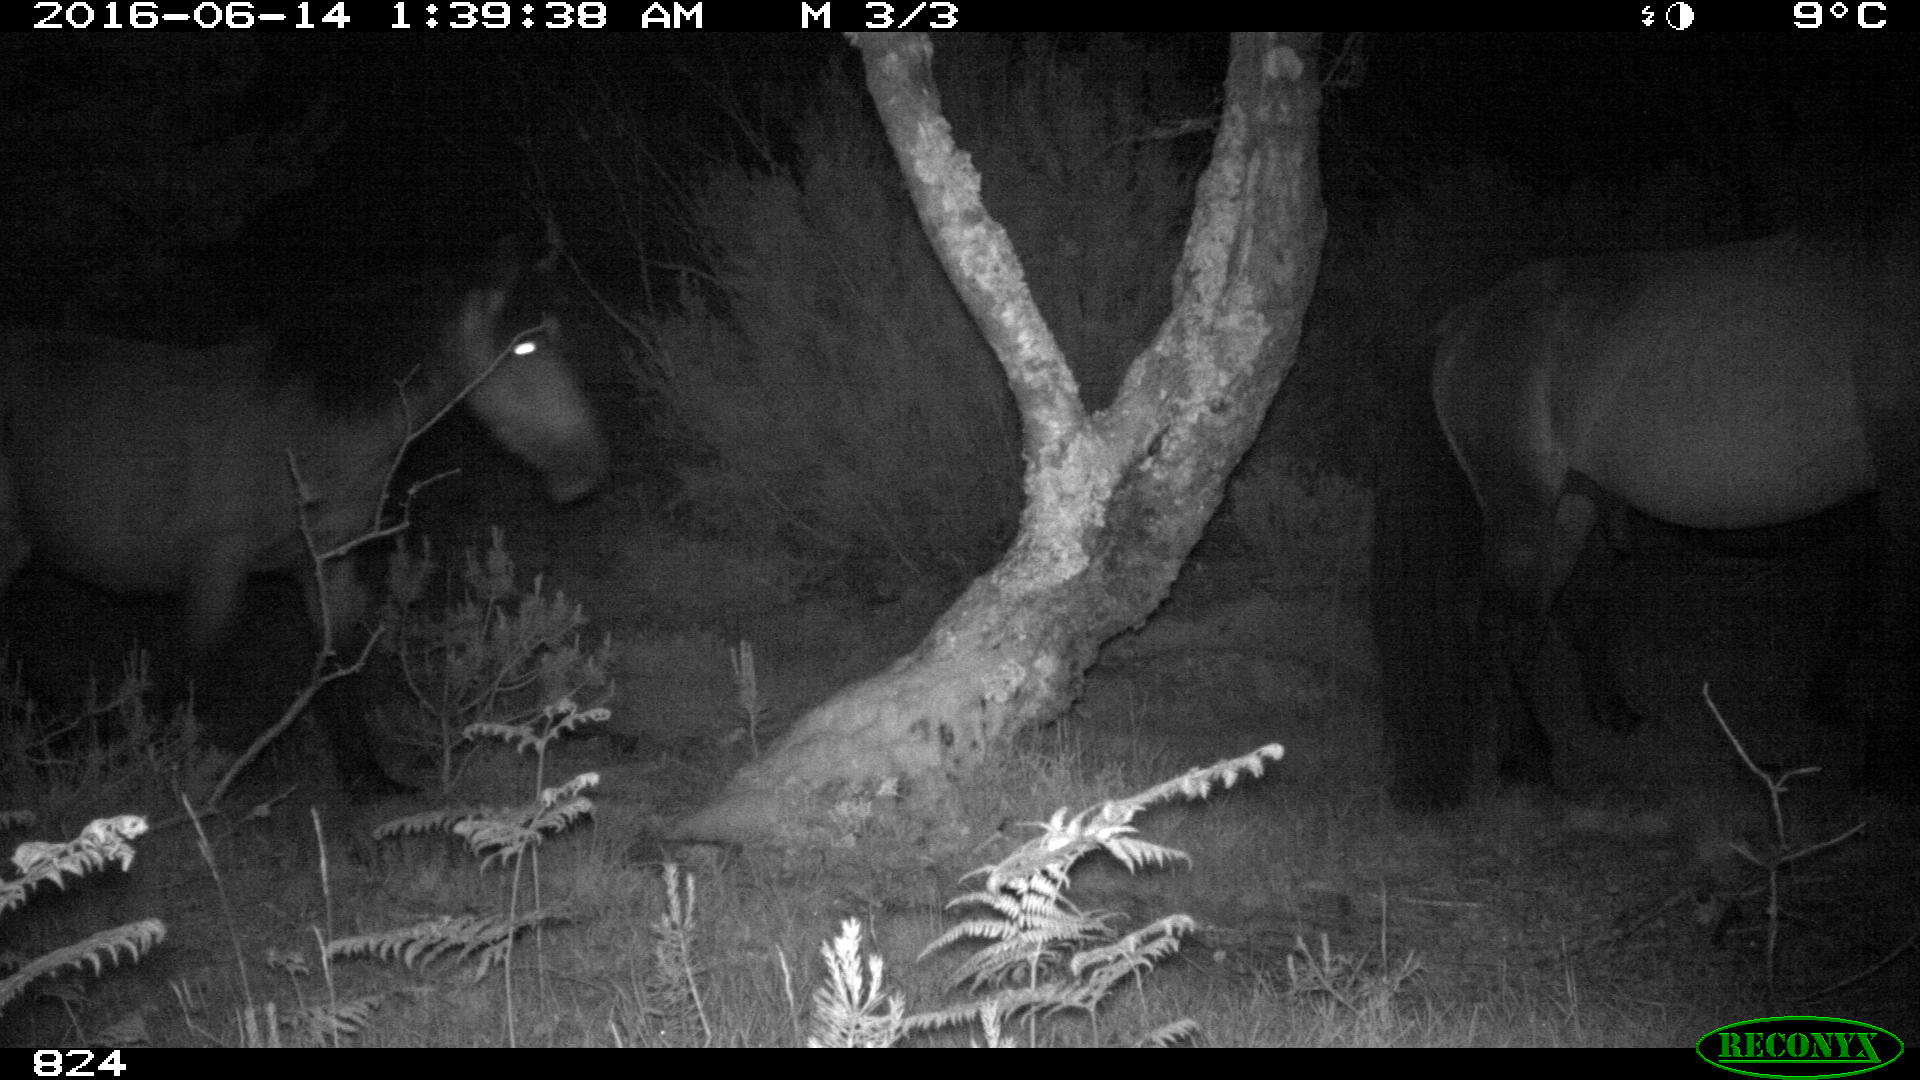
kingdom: Animalia
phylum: Chordata
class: Mammalia
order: Perissodactyla
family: Equidae
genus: Equus
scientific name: Equus caballus
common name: Horse
